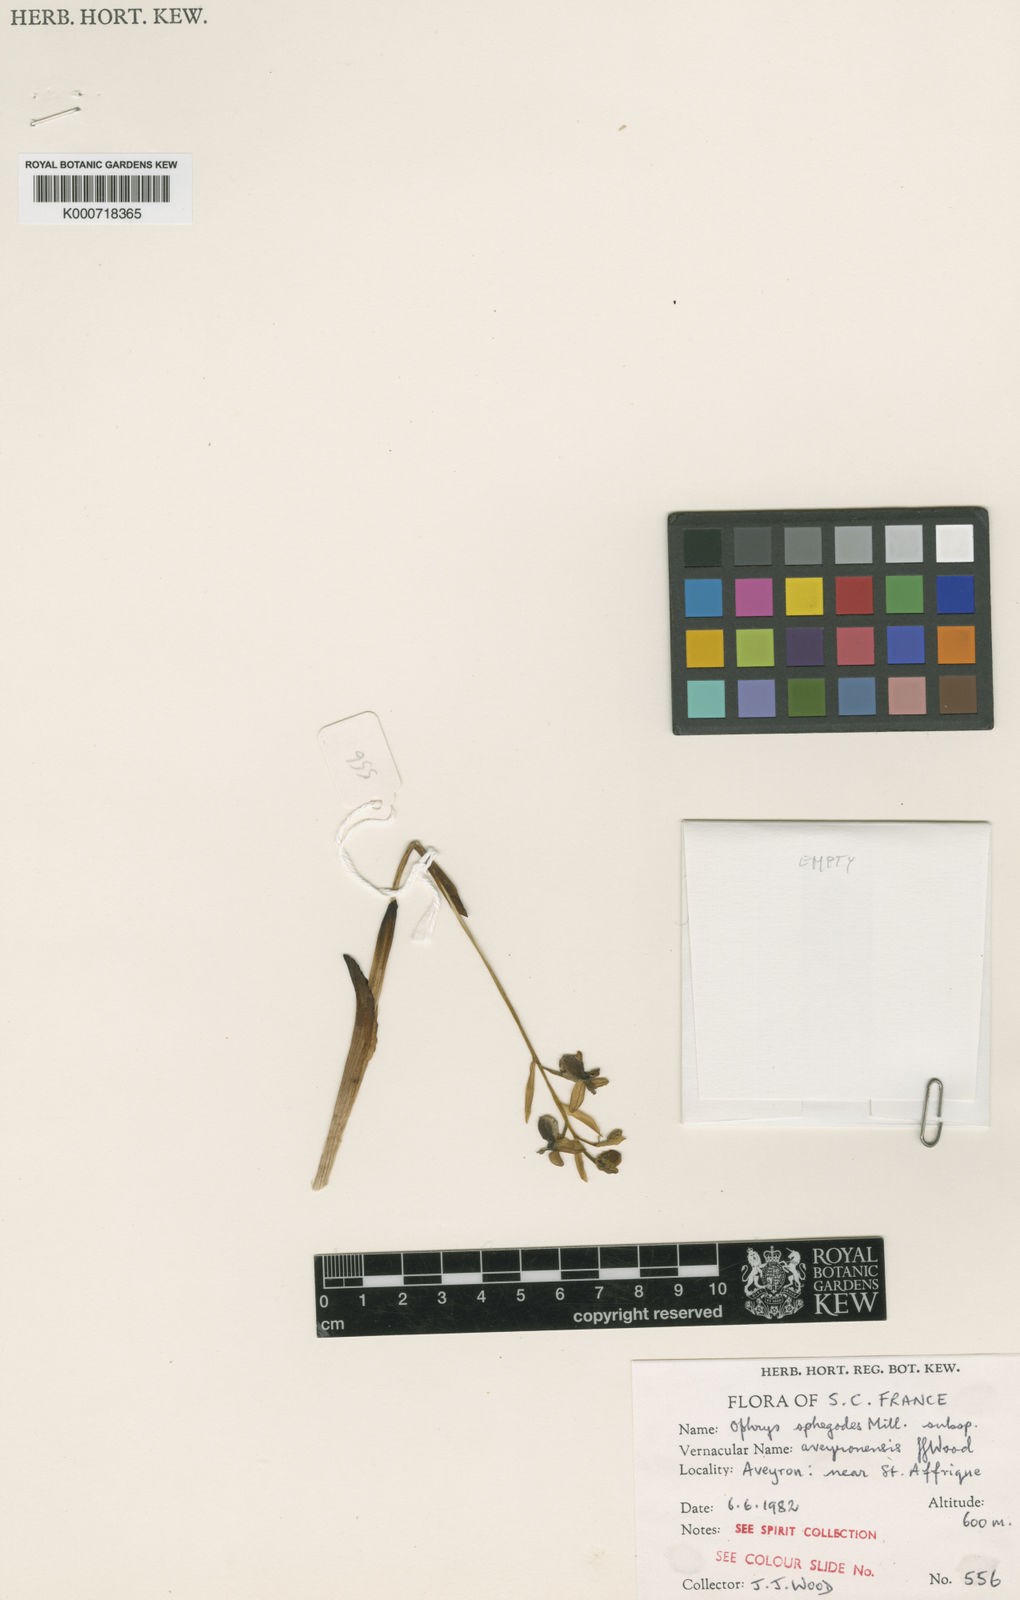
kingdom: Plantae
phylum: Tracheophyta
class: Magnoliopsida
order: Gentianales
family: Apocynaceae
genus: Tabernaemontana
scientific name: Tabernaemontana pachysiphon
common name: Giant pinwheel-flower
